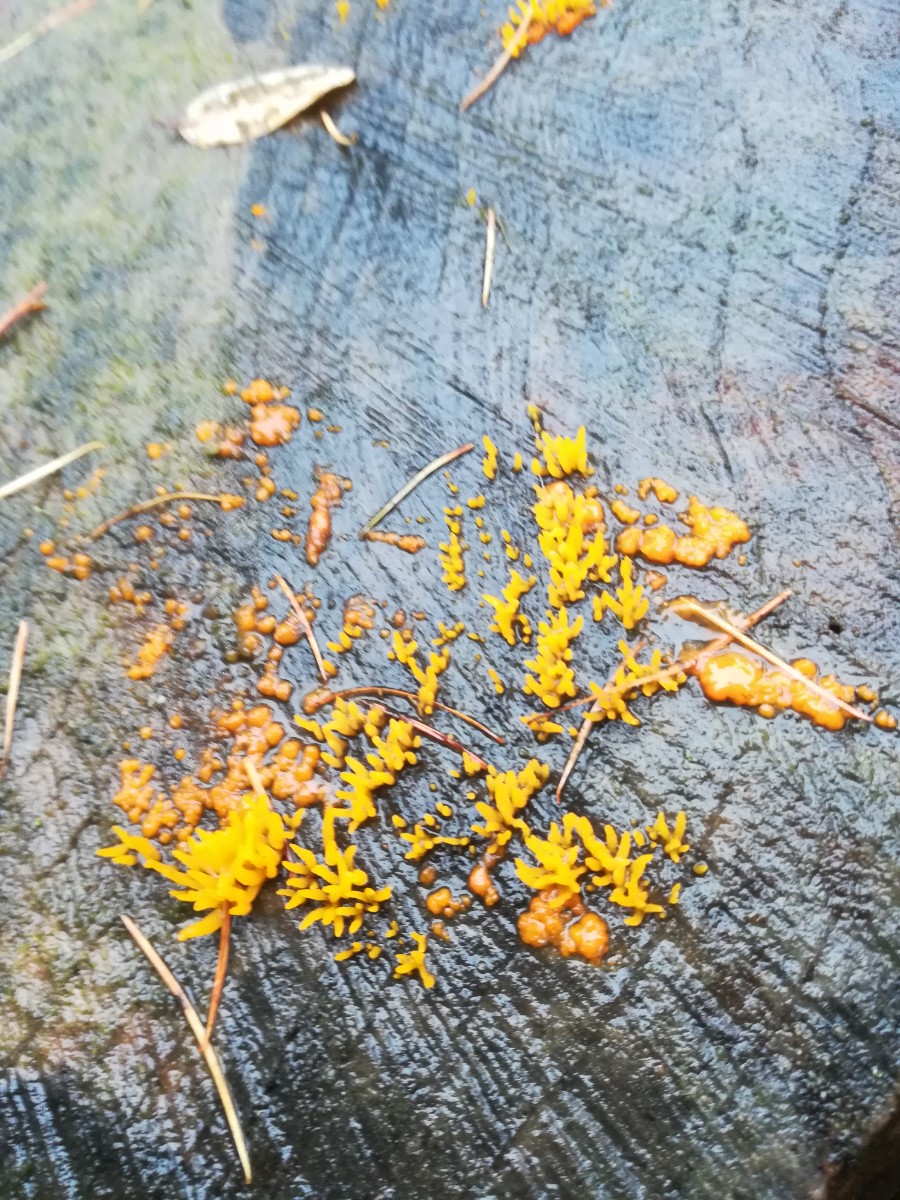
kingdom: Fungi
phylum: Basidiomycota
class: Dacrymycetes
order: Dacrymycetales
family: Dacrymycetaceae
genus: Calocera
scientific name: Calocera
